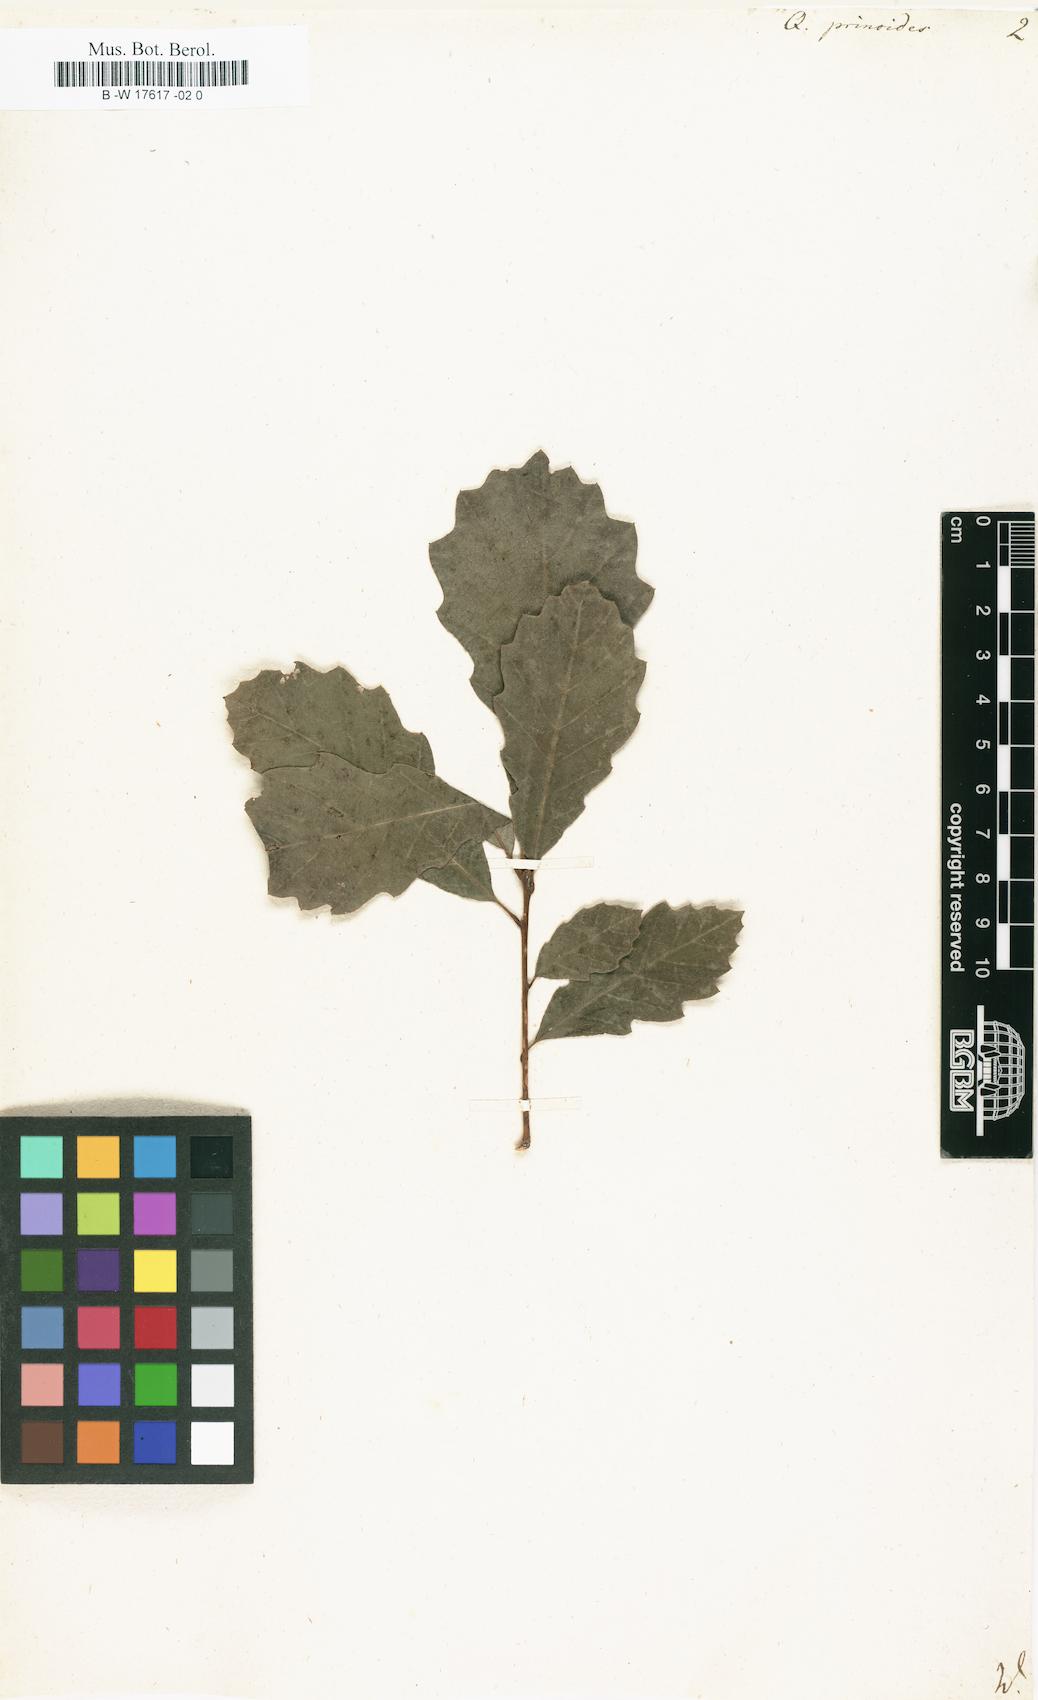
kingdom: Plantae
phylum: Tracheophyta
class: Magnoliopsida
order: Fagales
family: Fagaceae
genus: Quercus
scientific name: Quercus prinoides
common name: Dwarf chinkapin oak
